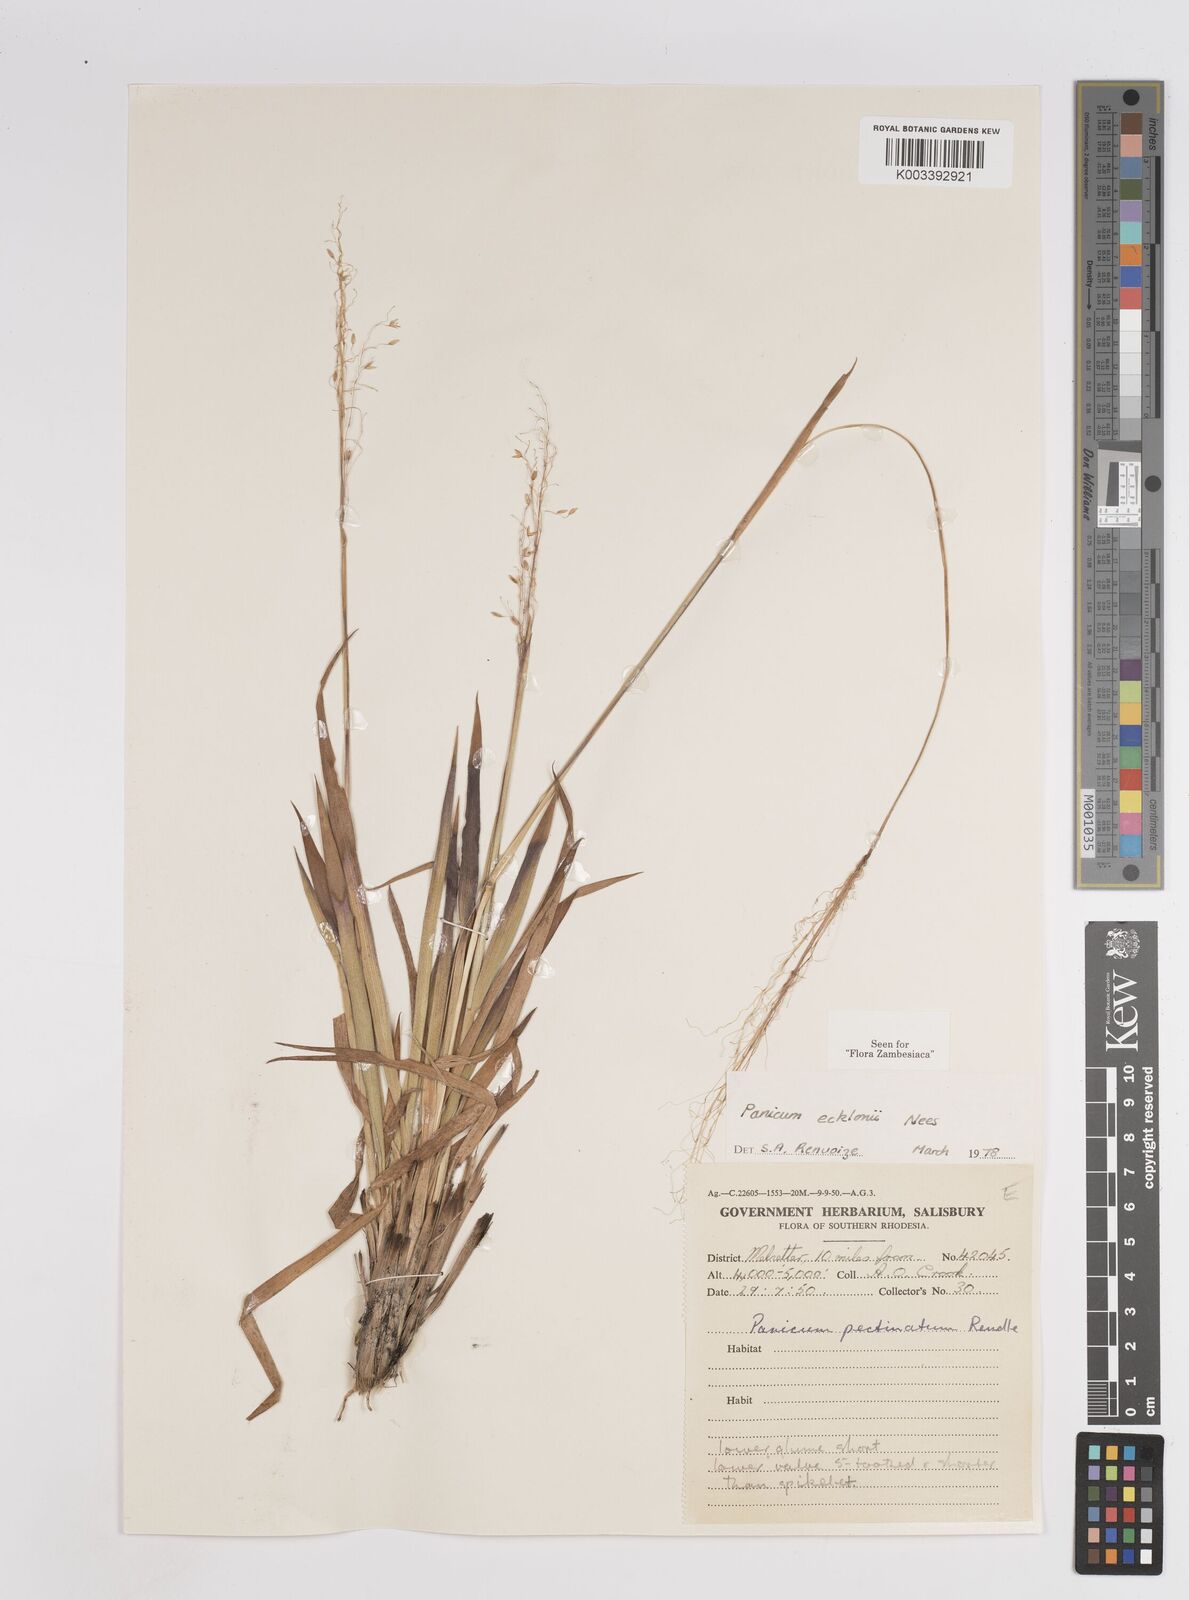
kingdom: Plantae
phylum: Tracheophyta
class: Liliopsida
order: Poales
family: Poaceae
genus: Adenochloa
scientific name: Adenochloa ecklonii
